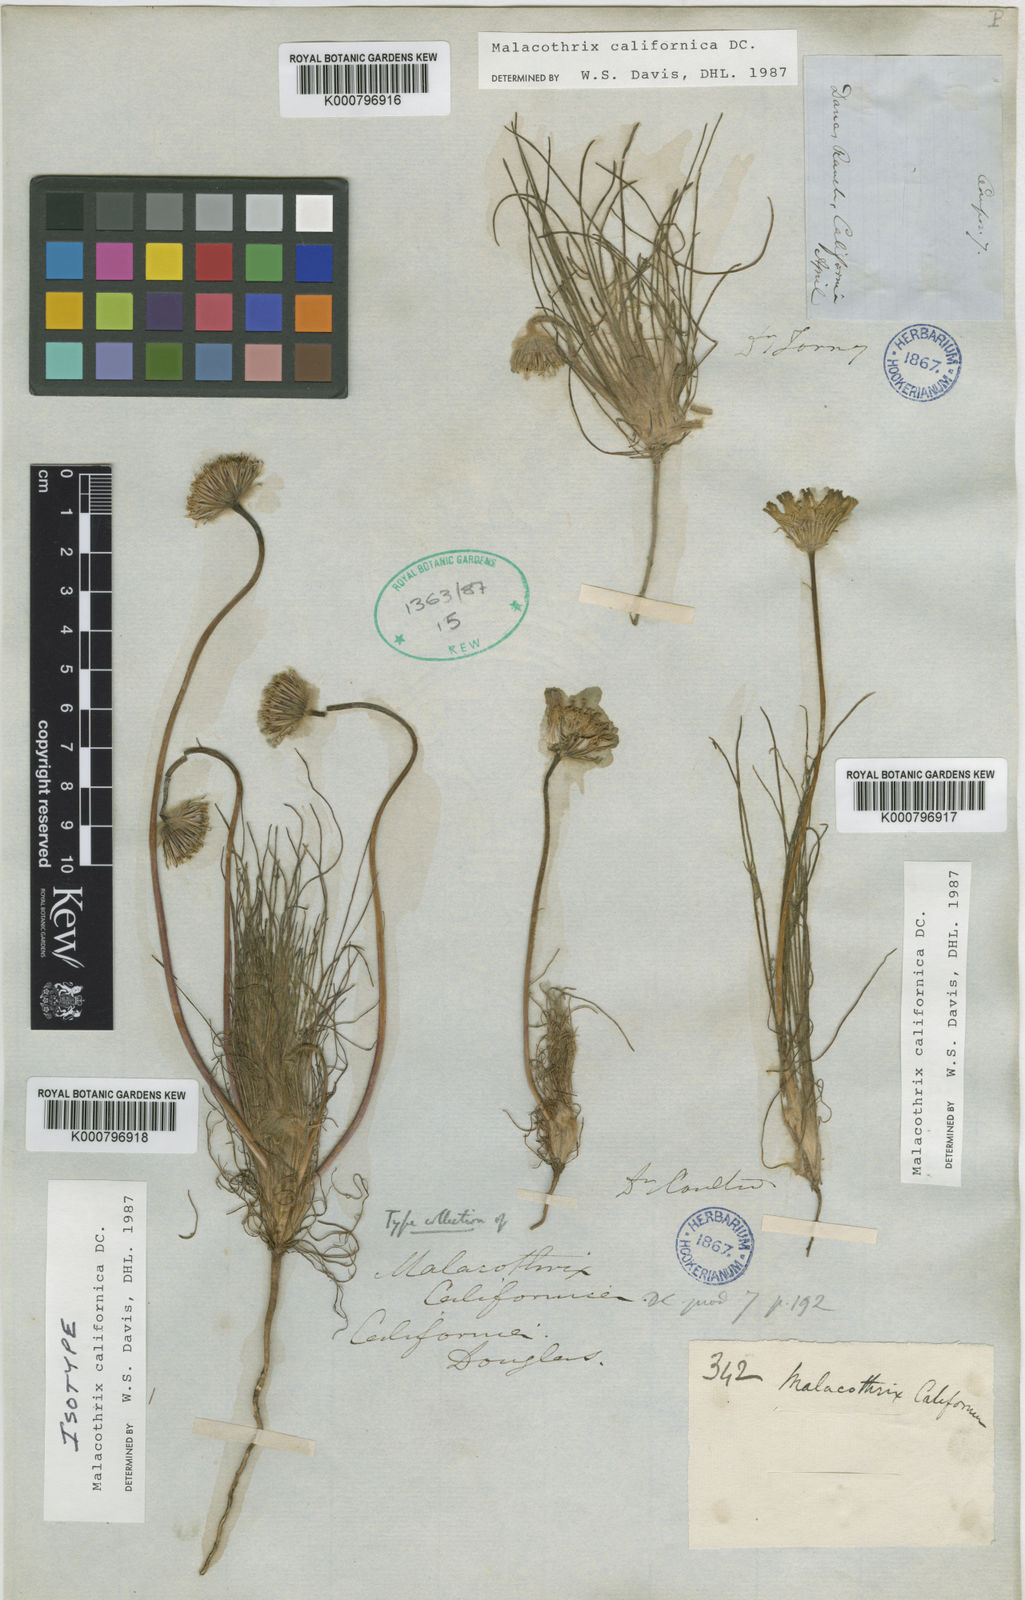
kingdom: Plantae
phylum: Tracheophyta
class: Magnoliopsida
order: Asterales
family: Asteraceae
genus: Malacothrix
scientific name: Malacothrix californica
